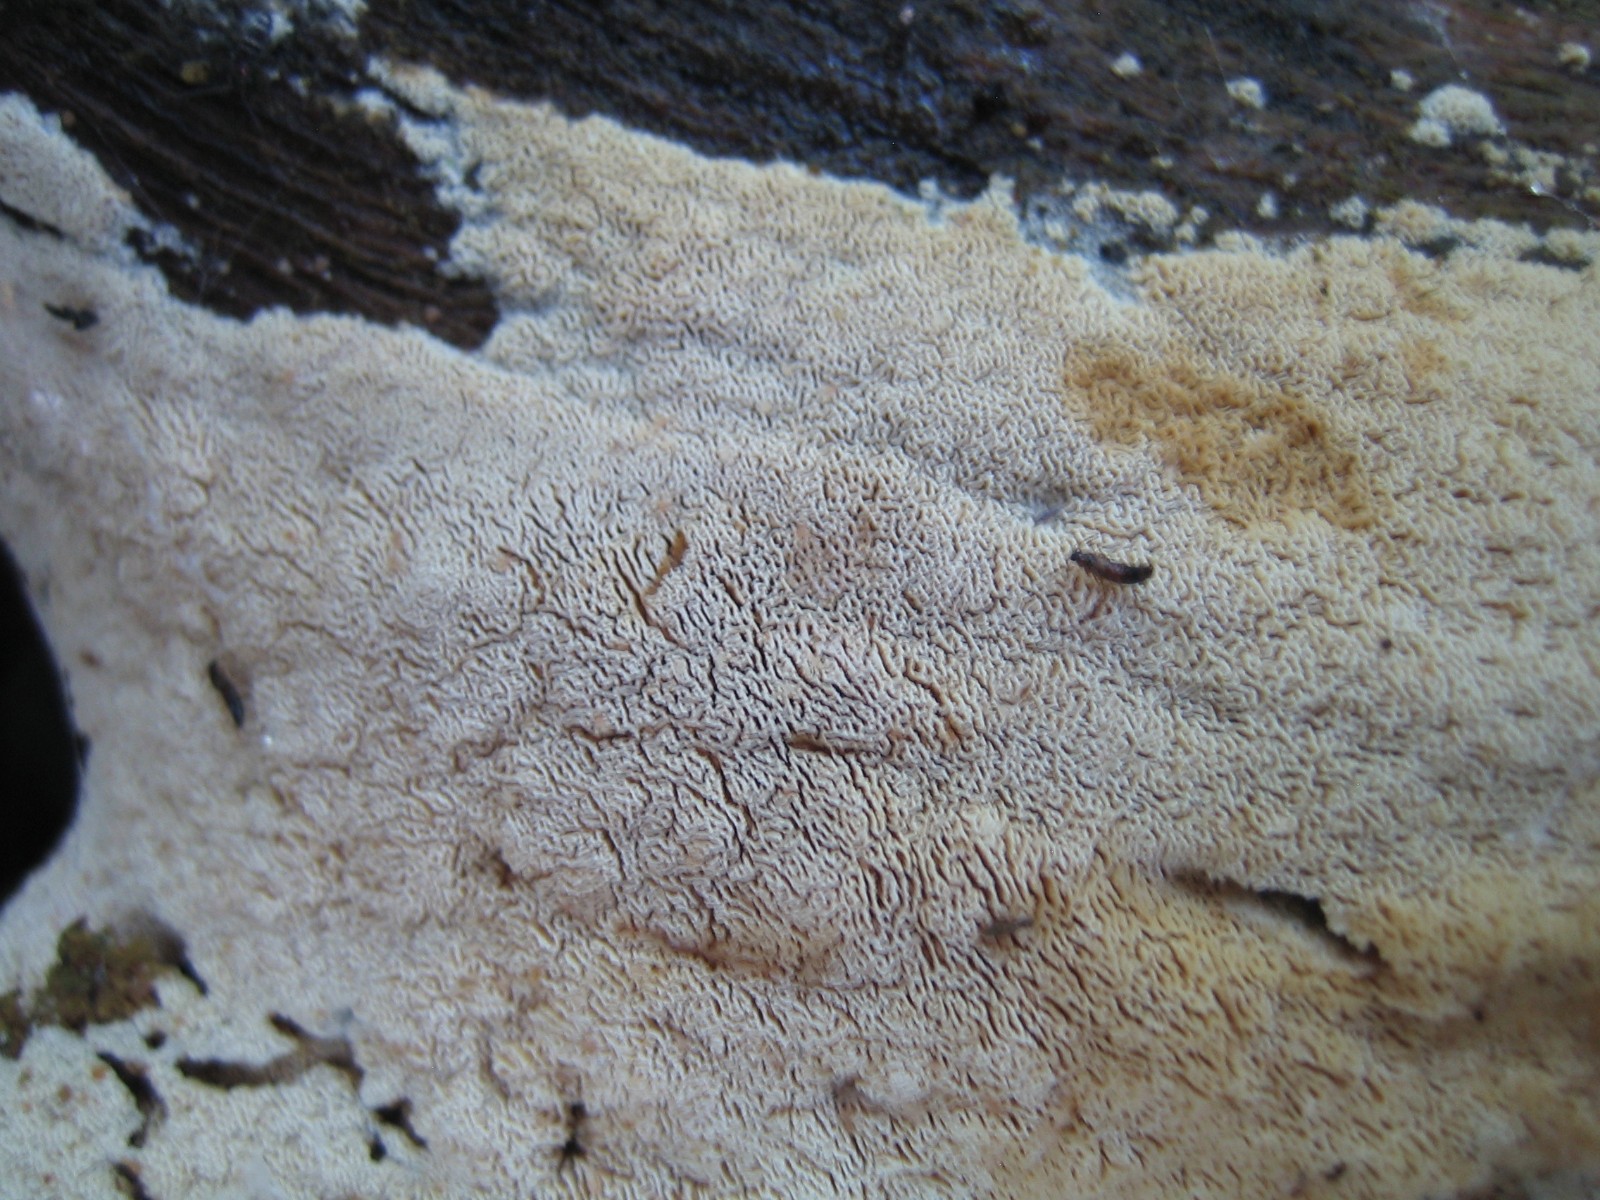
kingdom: Fungi
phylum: Basidiomycota
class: Agaricomycetes
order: Hymenochaetales
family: Schizoporaceae
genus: Xylodon
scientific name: Xylodon subtropicus
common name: labyrint-tandsvamp
